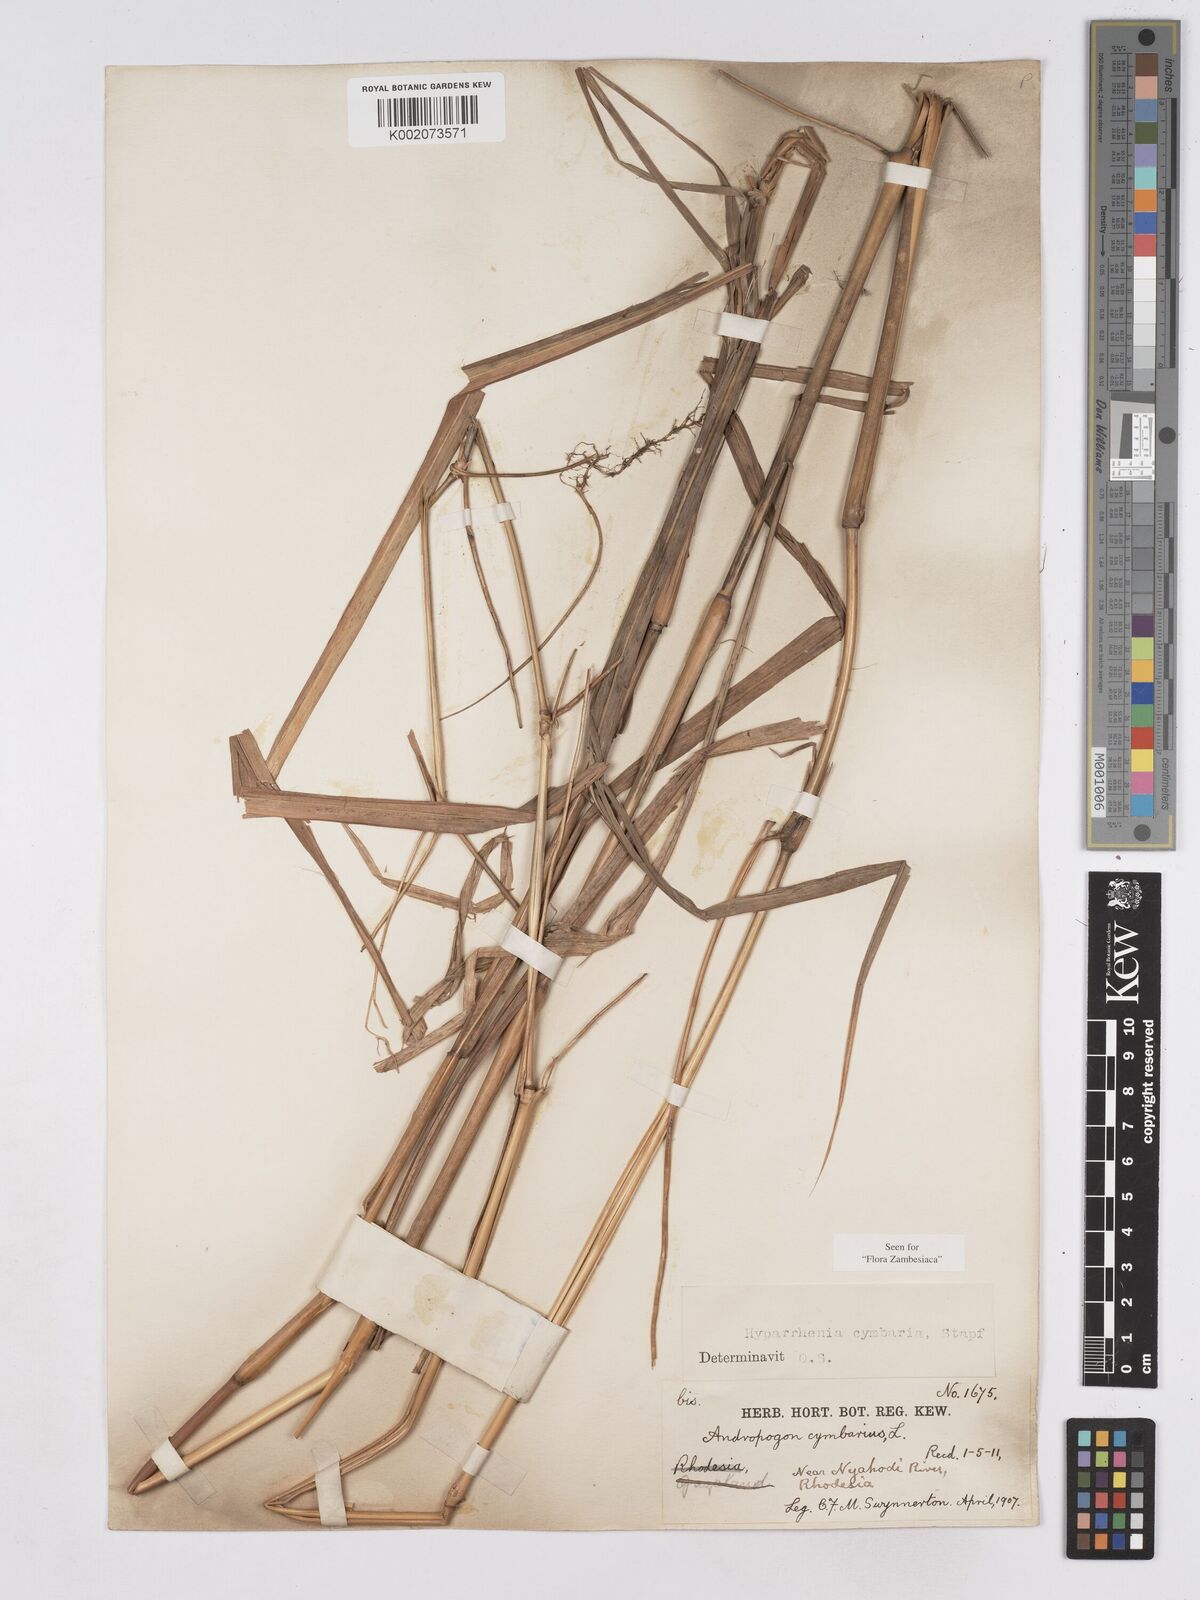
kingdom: Plantae
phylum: Tracheophyta
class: Liliopsida
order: Poales
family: Poaceae
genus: Hyparrhenia
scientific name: Hyparrhenia cymbaria
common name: Boat thatching grass
